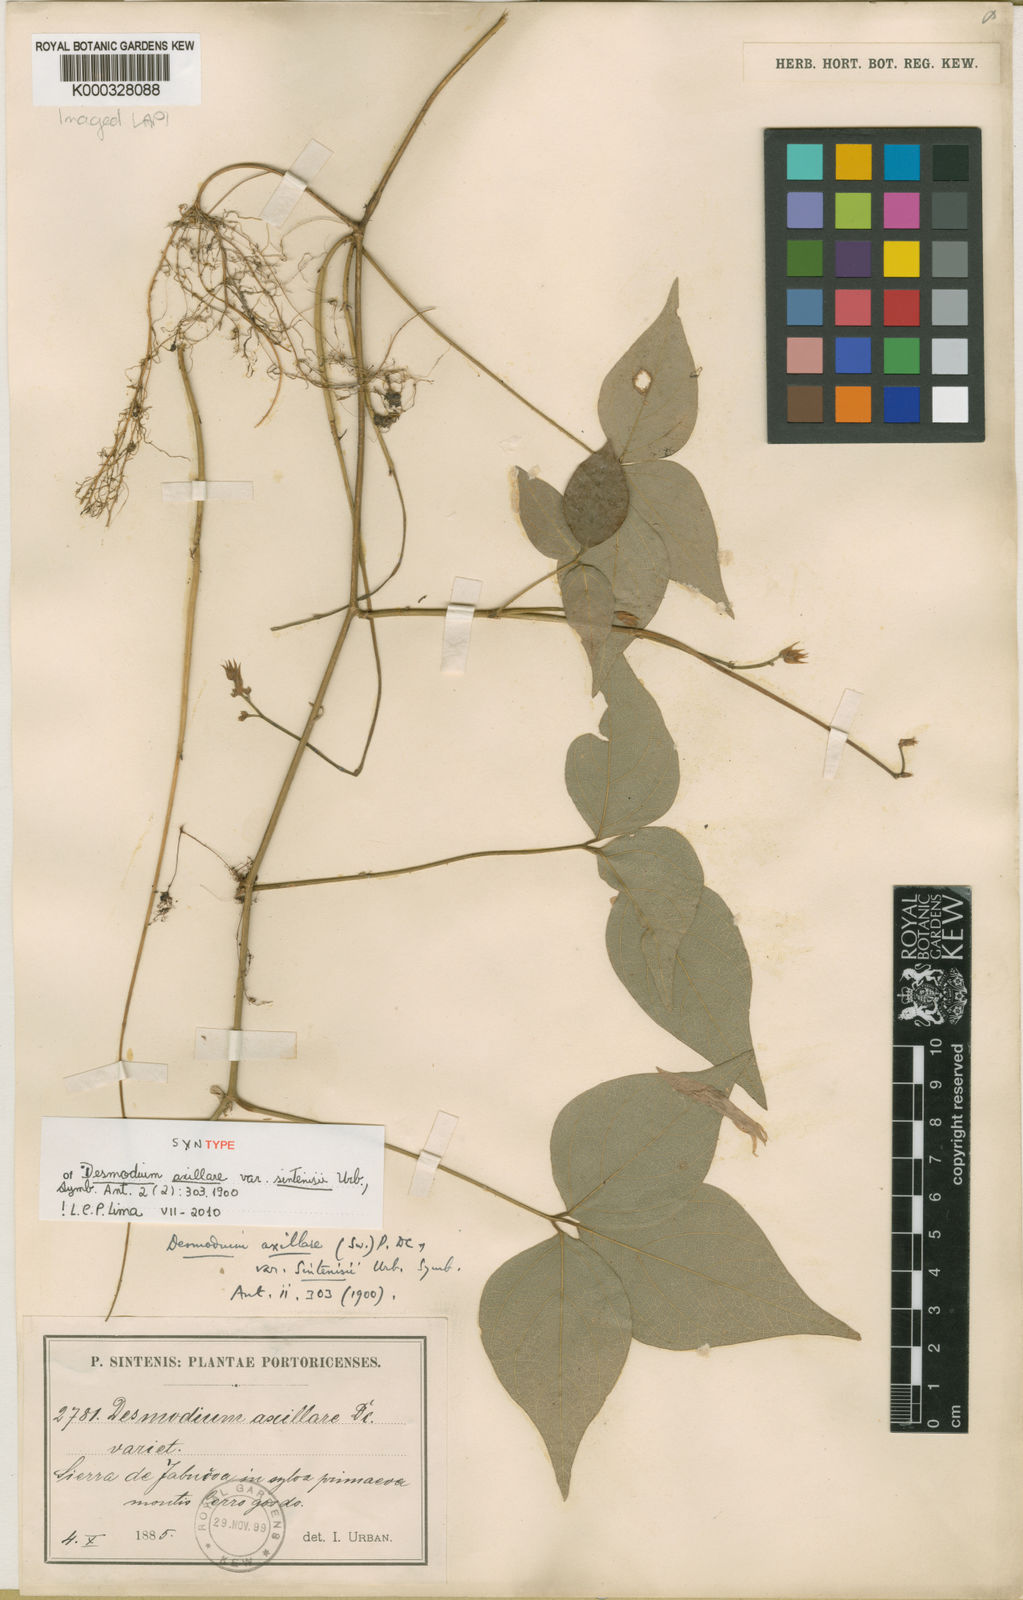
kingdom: Plantae
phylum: Tracheophyta
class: Magnoliopsida
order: Fabales
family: Fabaceae
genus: Desmodium
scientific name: Desmodium axillare
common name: Wire with
